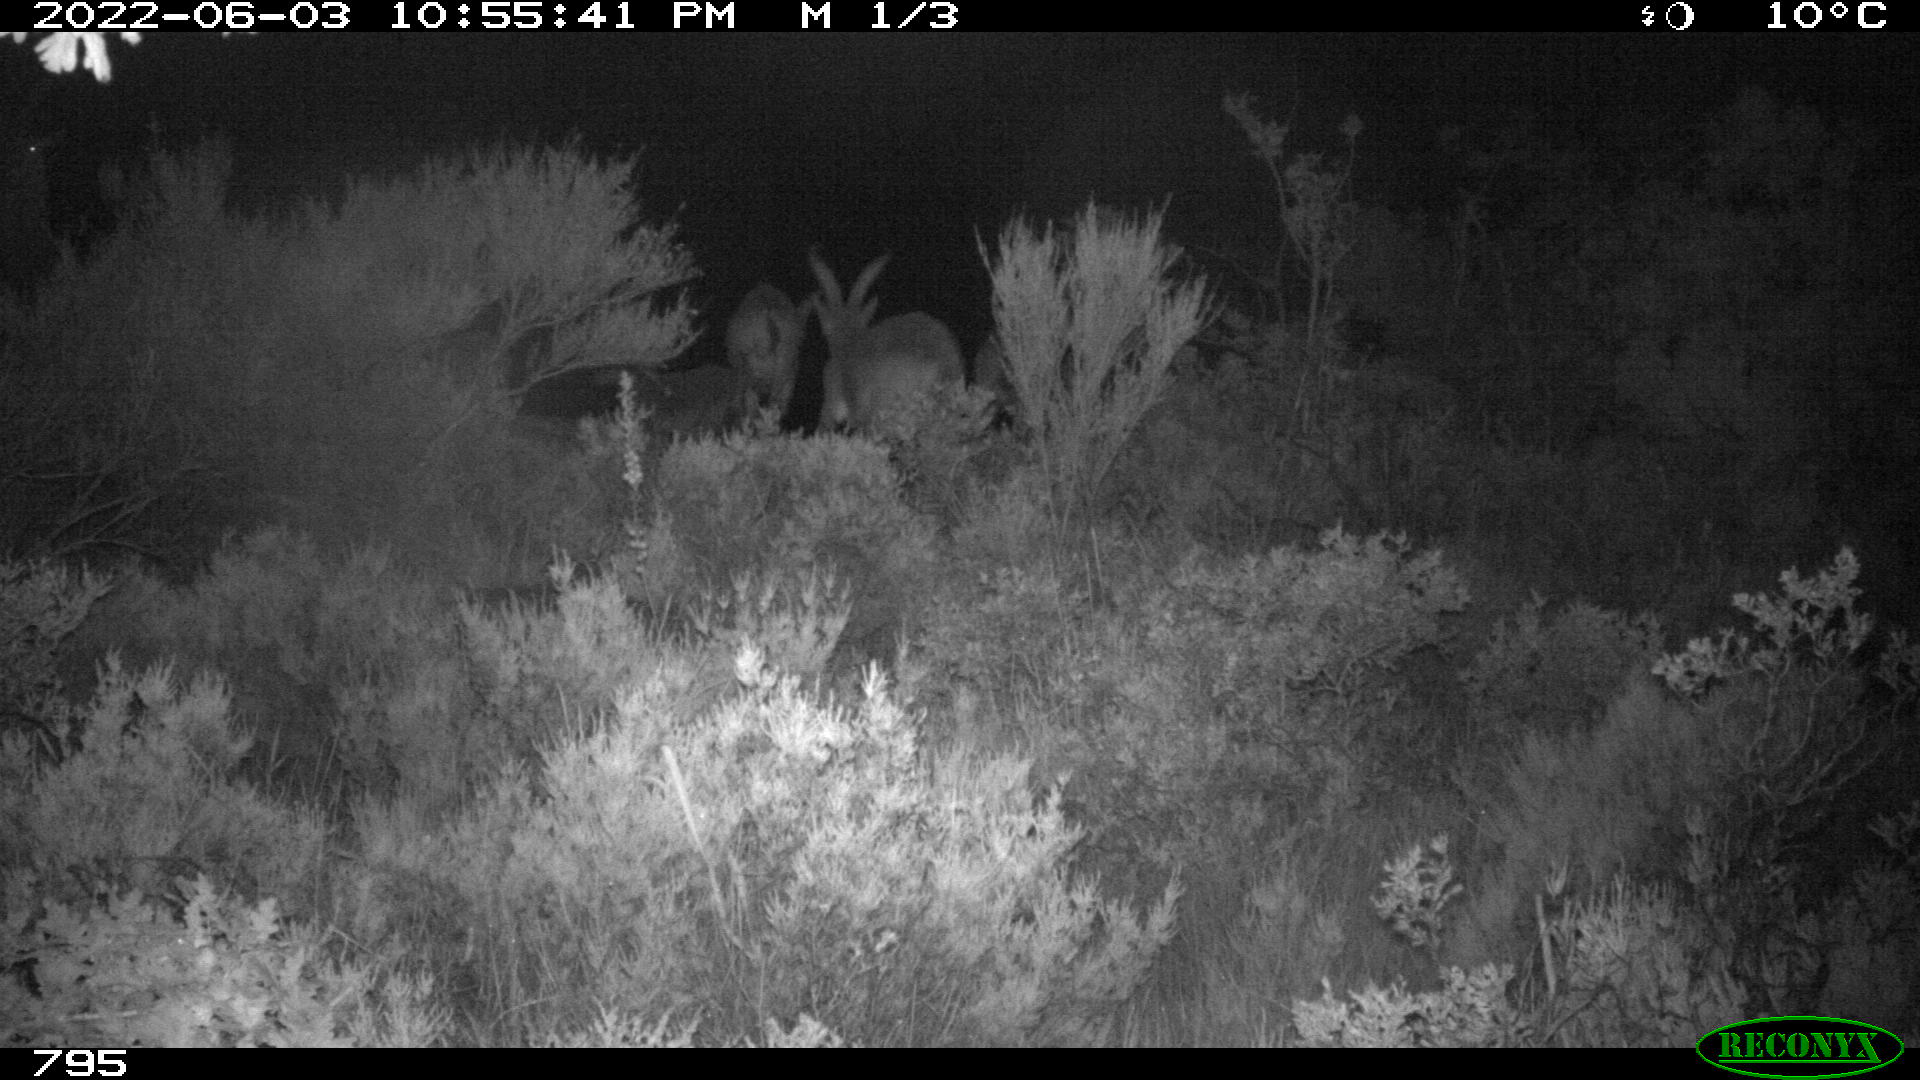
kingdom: Animalia
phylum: Chordata
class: Mammalia
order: Artiodactyla
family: Bovidae
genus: Capra
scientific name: Capra pyrenaica
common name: Spanish ibex
